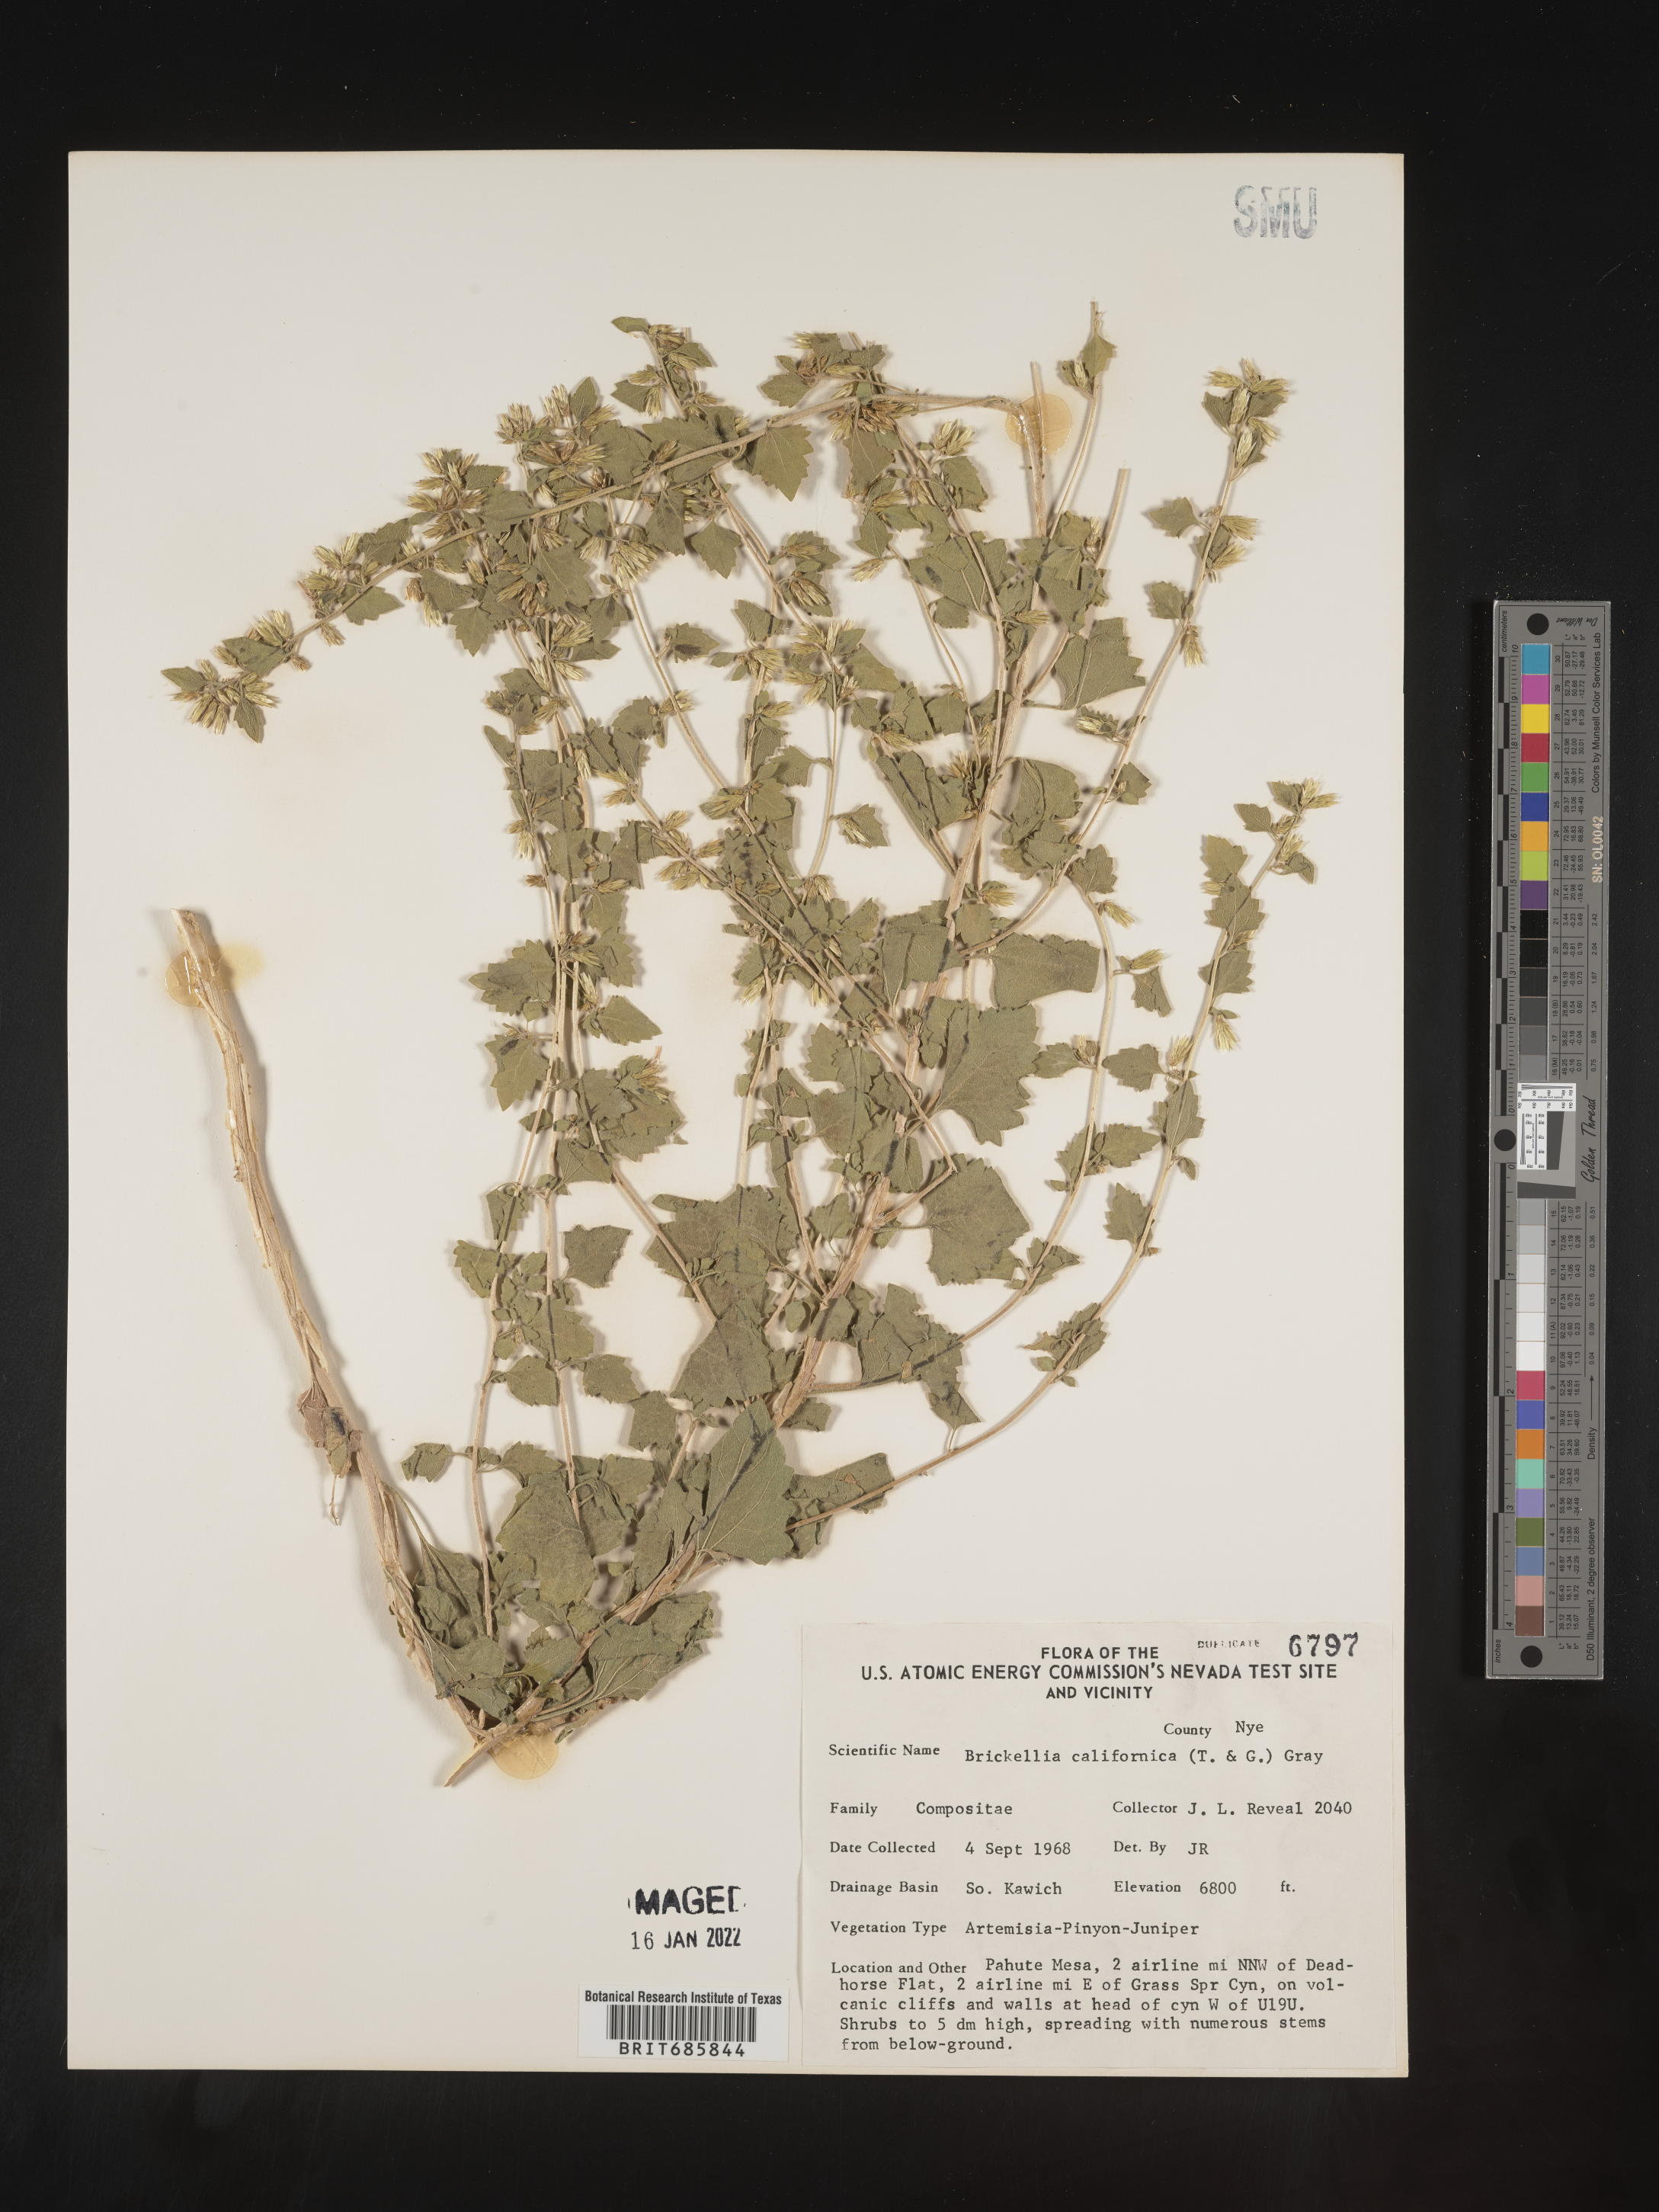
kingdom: Plantae
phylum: Tracheophyta
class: Magnoliopsida
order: Asterales
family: Asteraceae
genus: Brickellia
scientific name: Brickellia californica
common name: California brickellbush
